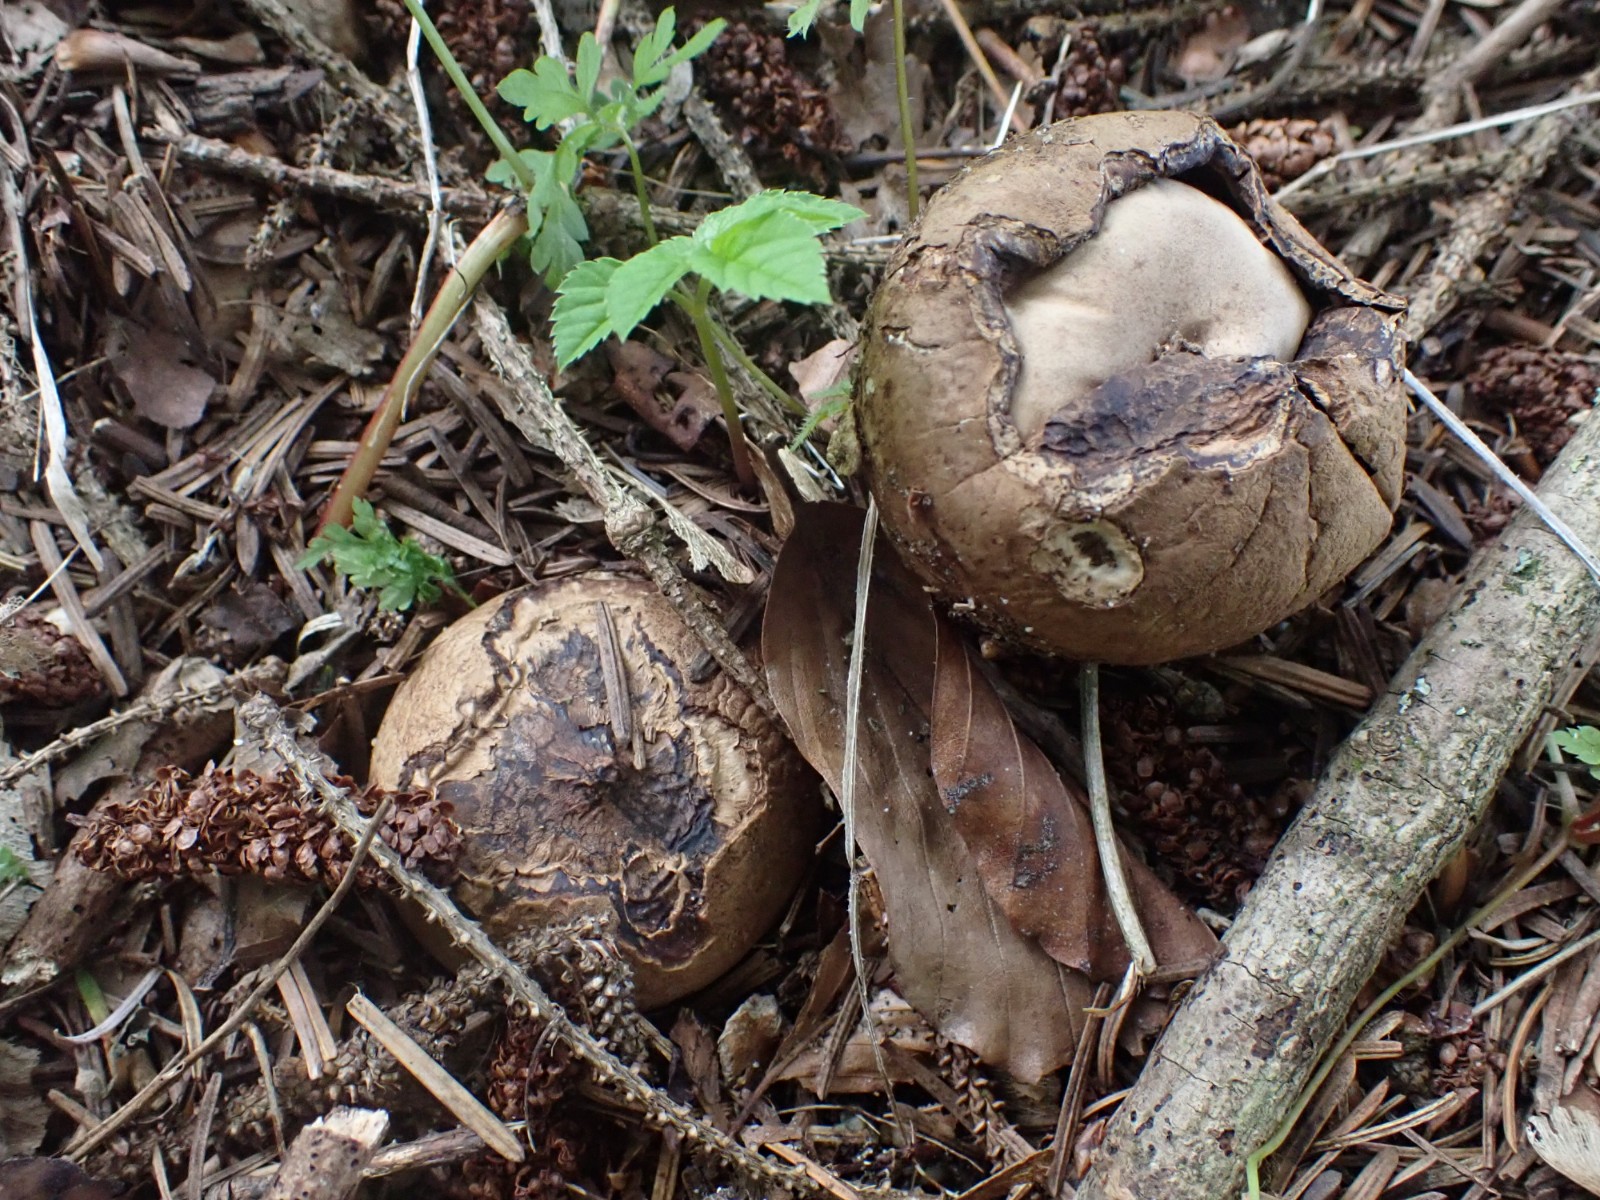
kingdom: Fungi
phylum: Basidiomycota
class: Agaricomycetes
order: Geastrales
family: Geastraceae
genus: Geastrum
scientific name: Geastrum michelianum
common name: kødet stjernebold
